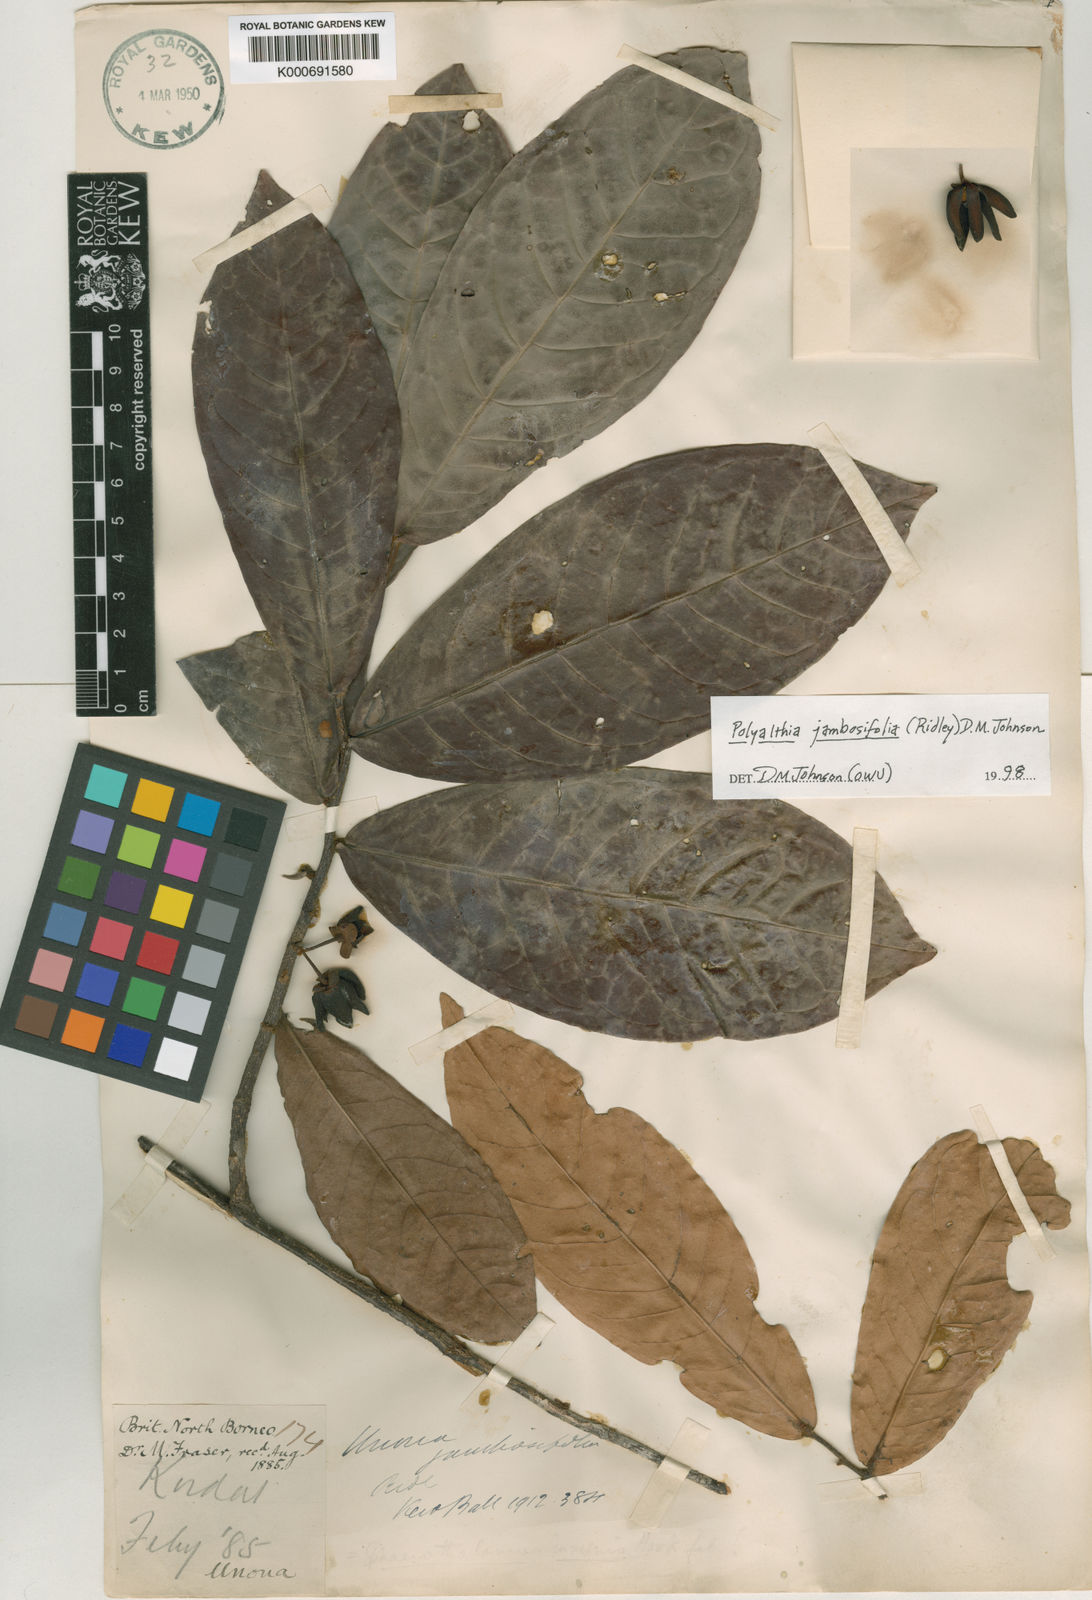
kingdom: Plantae
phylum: Tracheophyta
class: Magnoliopsida
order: Magnoliales
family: Annonaceae
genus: Polyalthia
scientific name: Polyalthia jambosifolia
